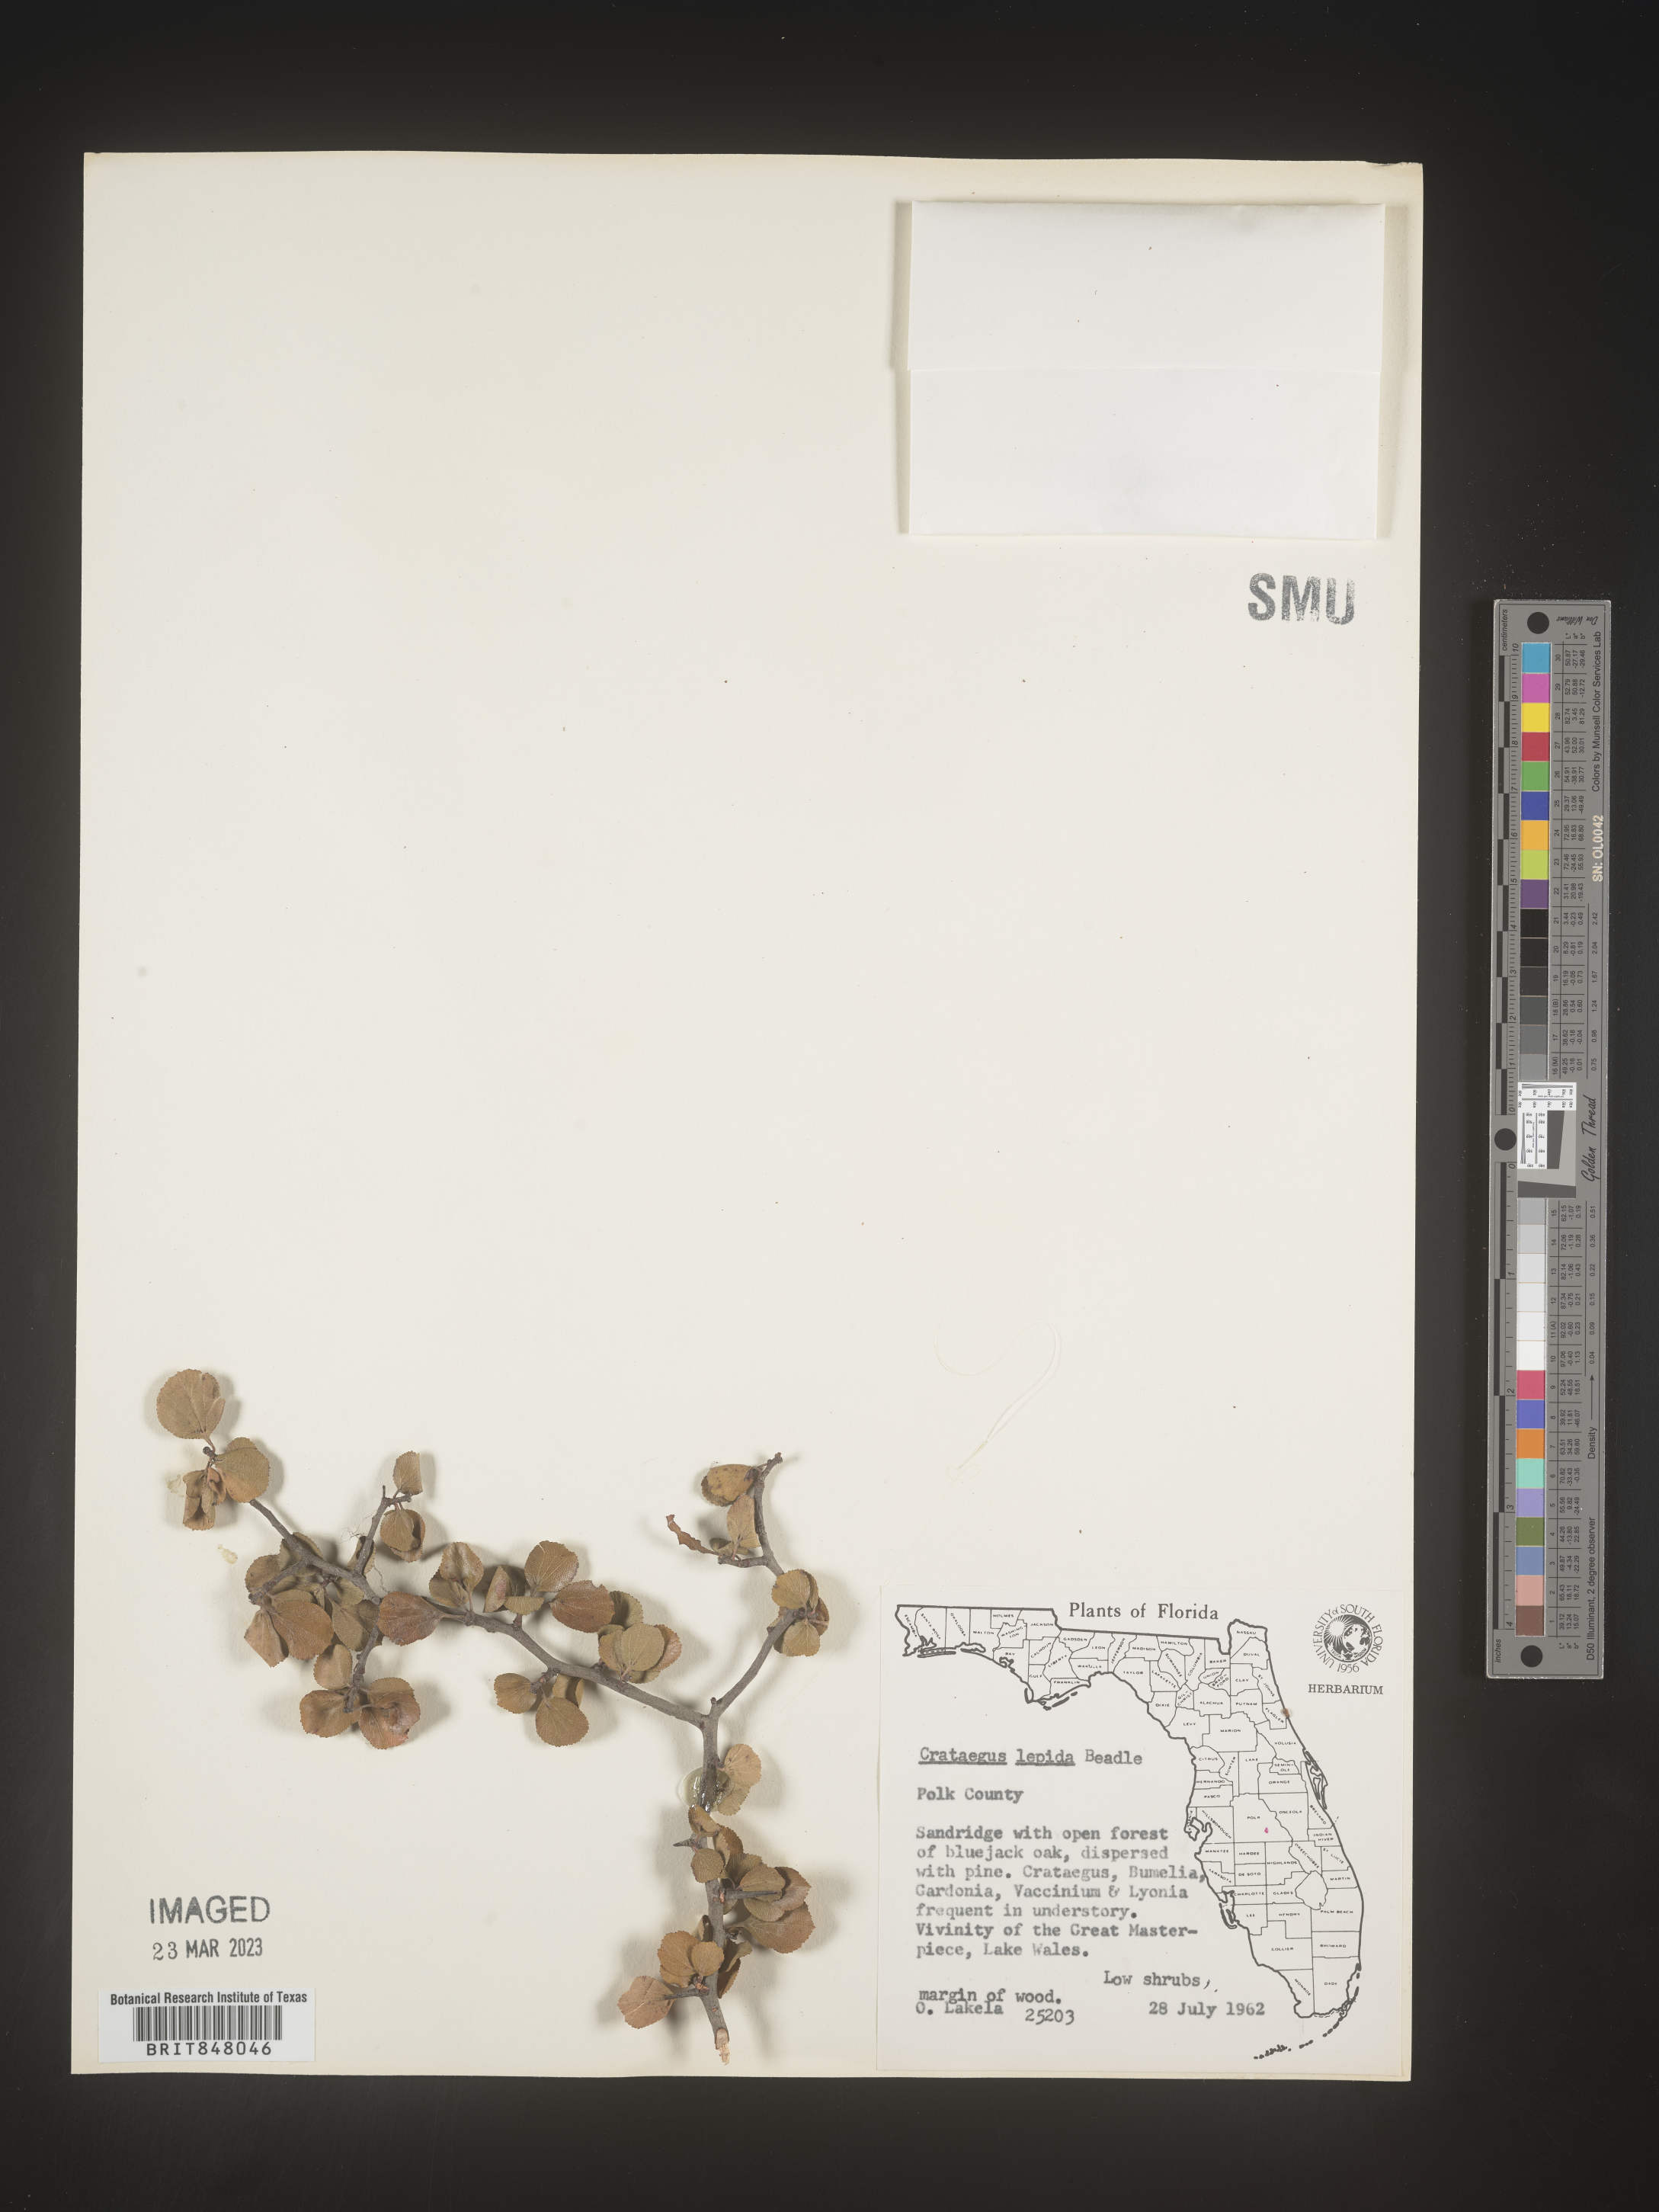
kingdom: Plantae
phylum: Tracheophyta
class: Magnoliopsida
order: Rosales
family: Rosaceae
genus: Crataegus
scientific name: Crataegus
